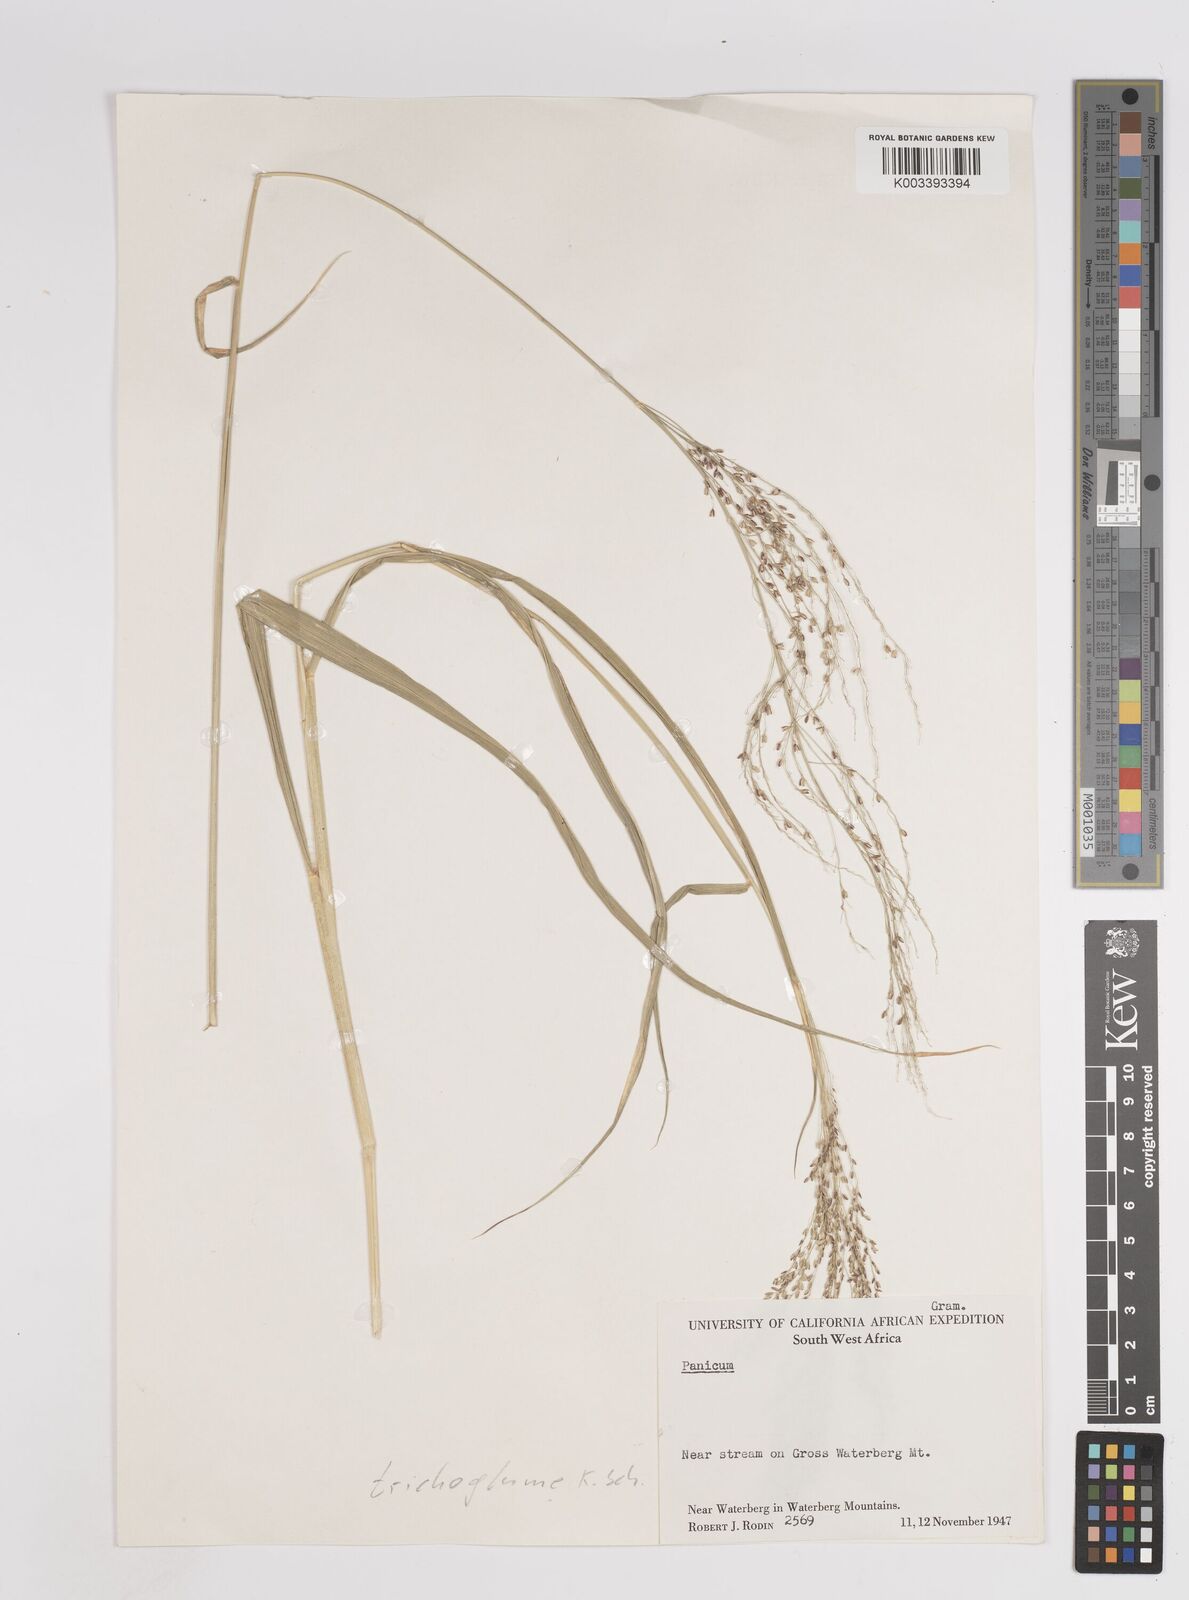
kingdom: Plantae
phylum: Tracheophyta
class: Liliopsida
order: Poales
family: Poaceae
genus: Megathyrsus
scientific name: Megathyrsus maximus
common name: Guineagrass
